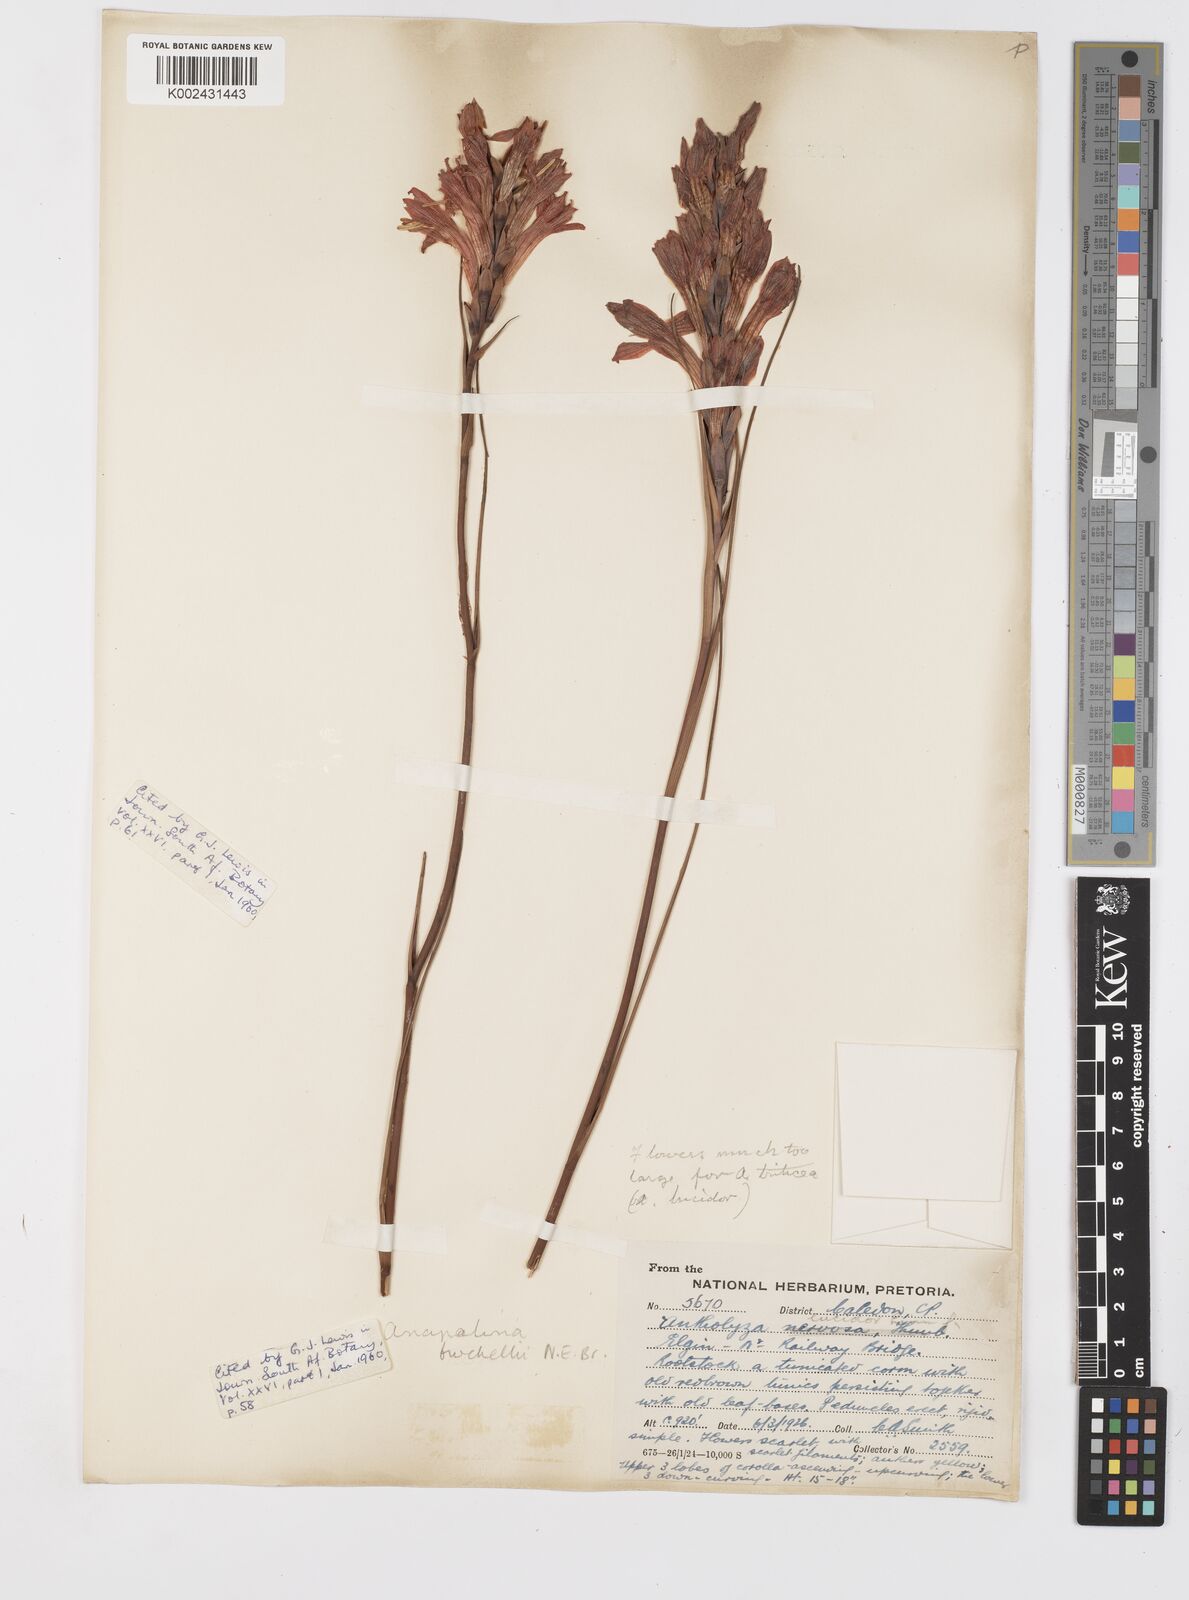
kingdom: Plantae
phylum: Tracheophyta
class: Liliopsida
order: Asparagales
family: Iridaceae
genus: Tritoniopsis
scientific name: Tritoniopsis triticea
